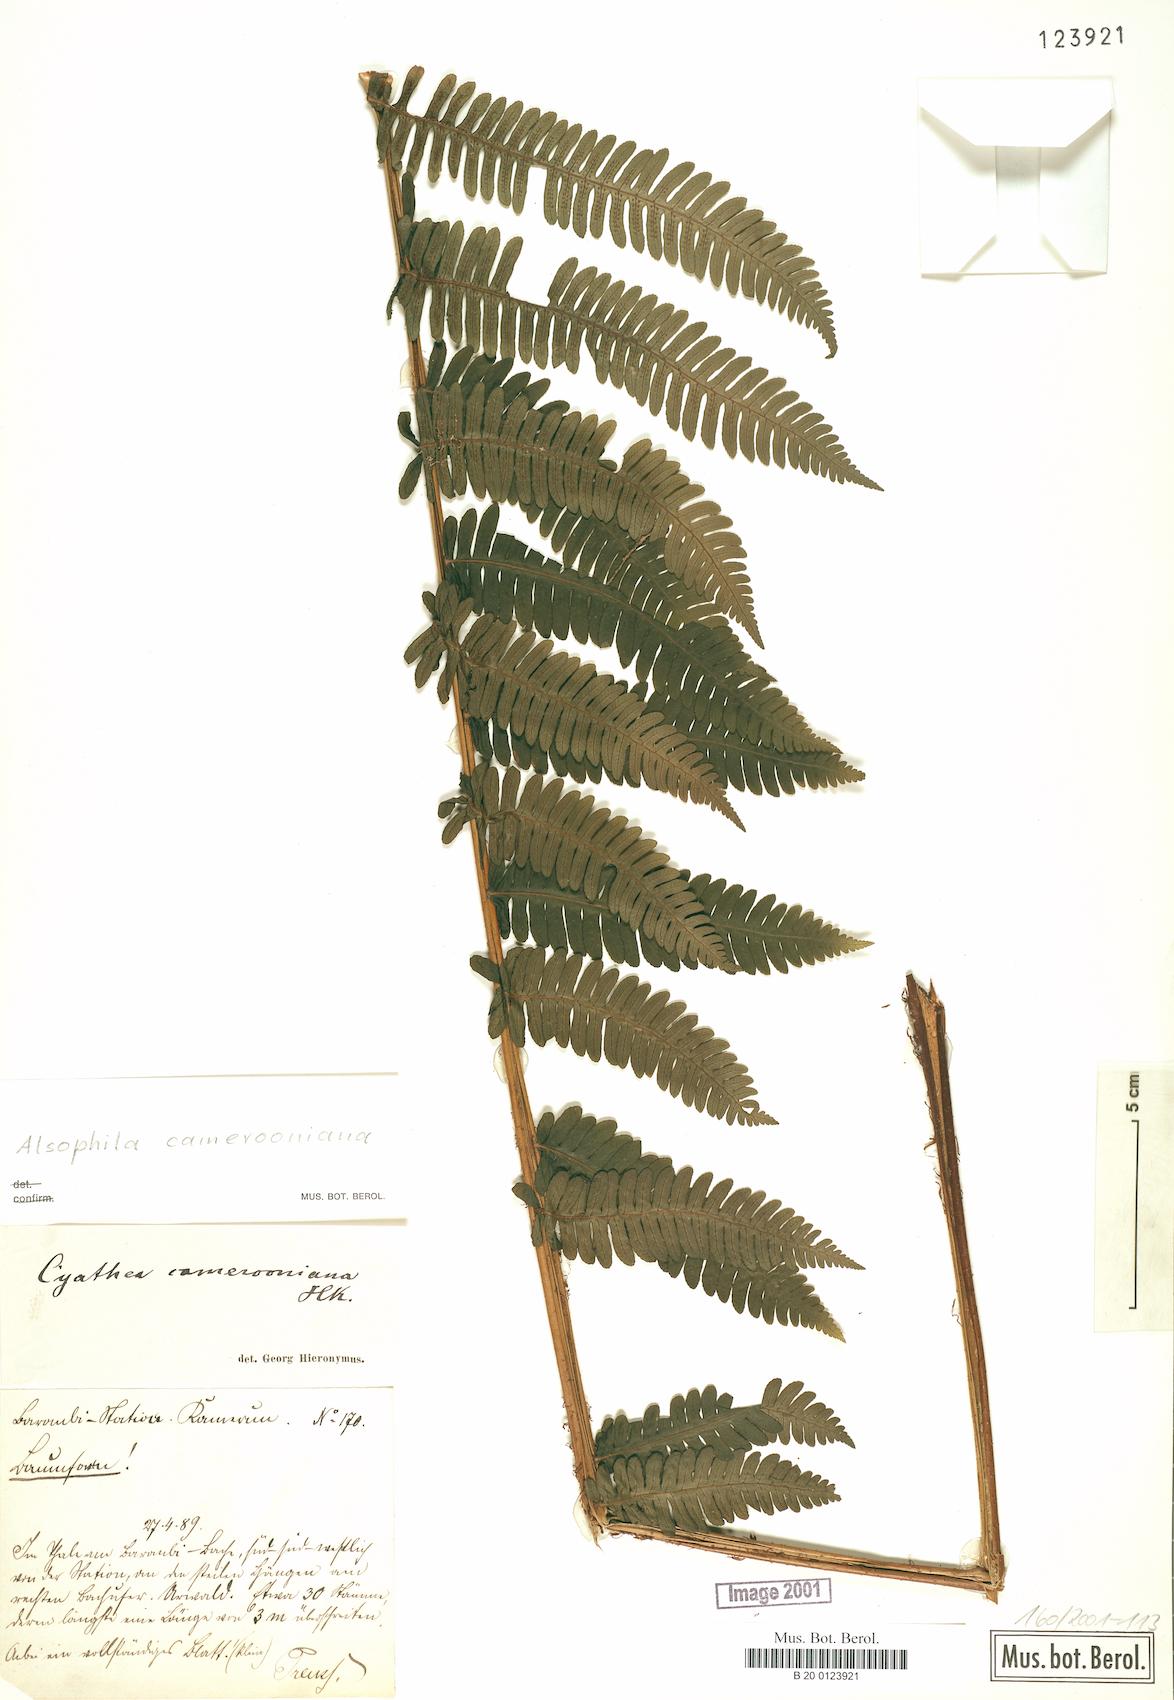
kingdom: Plantae
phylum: Tracheophyta
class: Polypodiopsida
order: Cyatheales
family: Cyatheaceae
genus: Alsophila
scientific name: Alsophila camerooniana
